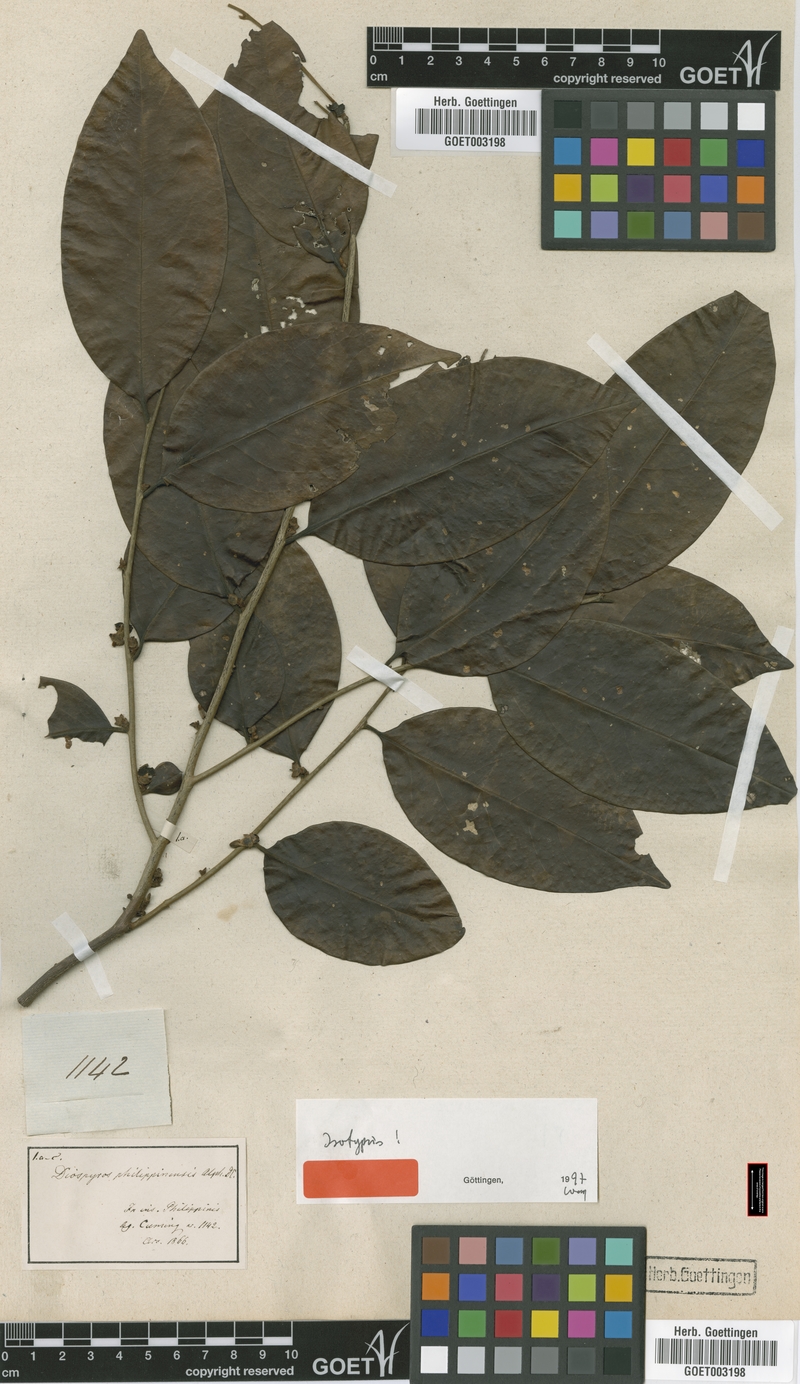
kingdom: Plantae
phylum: Tracheophyta
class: Magnoliopsida
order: Ericales
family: Ebenaceae
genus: Diospyros
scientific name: Diospyros philippinensis
